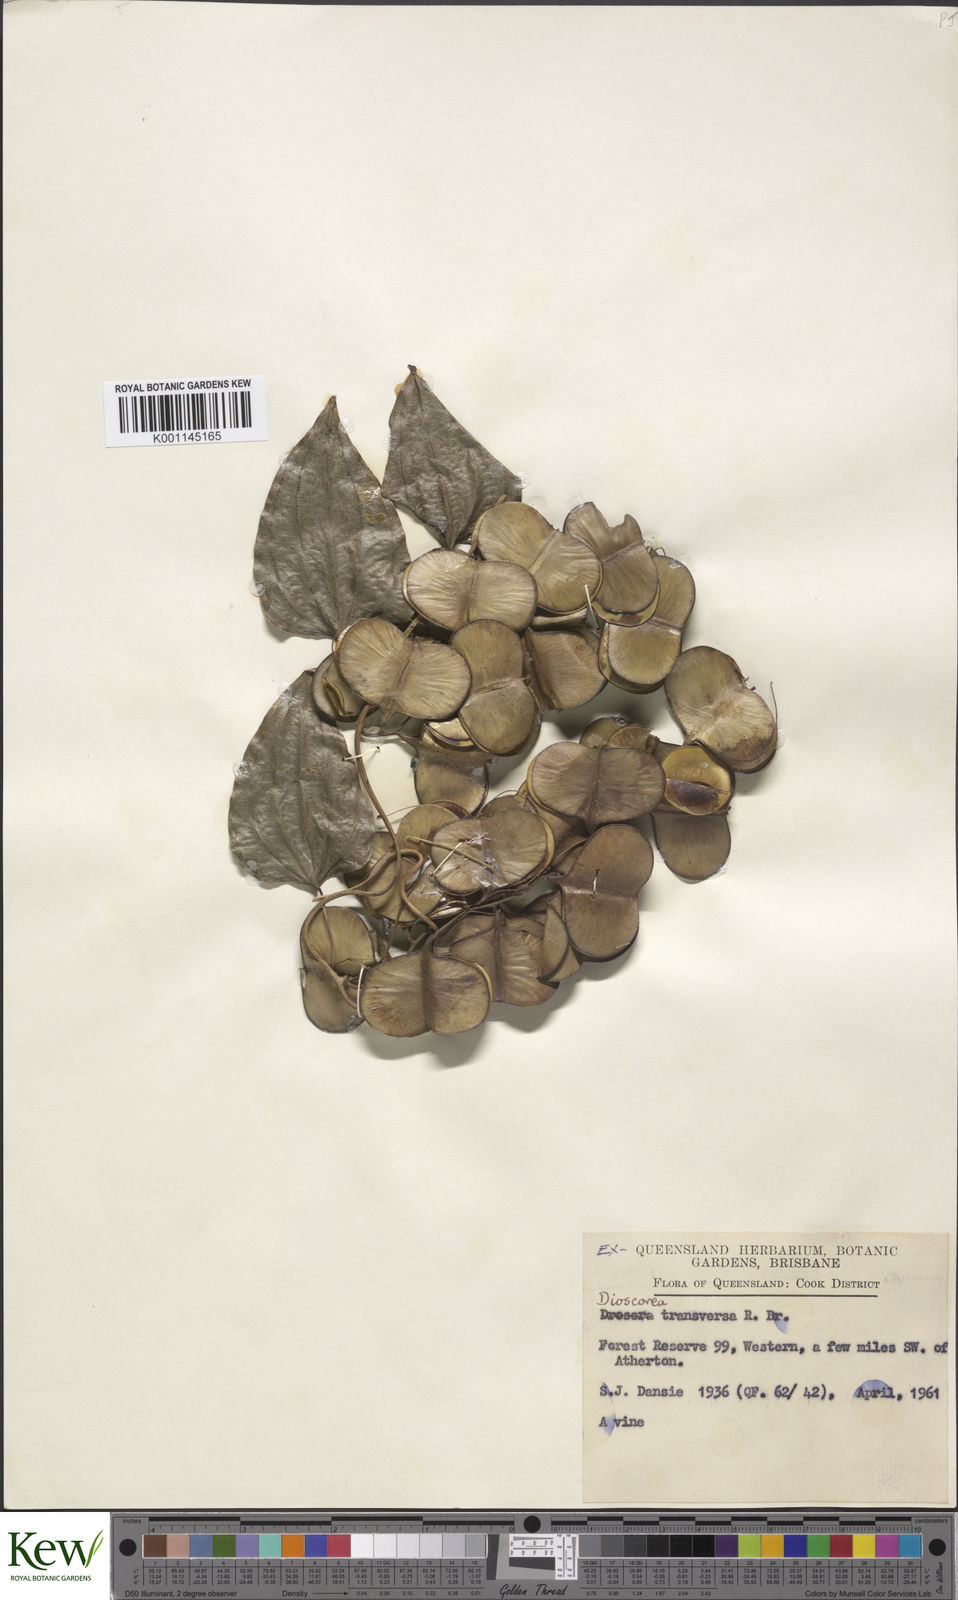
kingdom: Plantae
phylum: Tracheophyta
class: Liliopsida
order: Dioscoreales
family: Dioscoreaceae
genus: Dioscorea
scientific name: Dioscorea transversa
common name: Long yam
